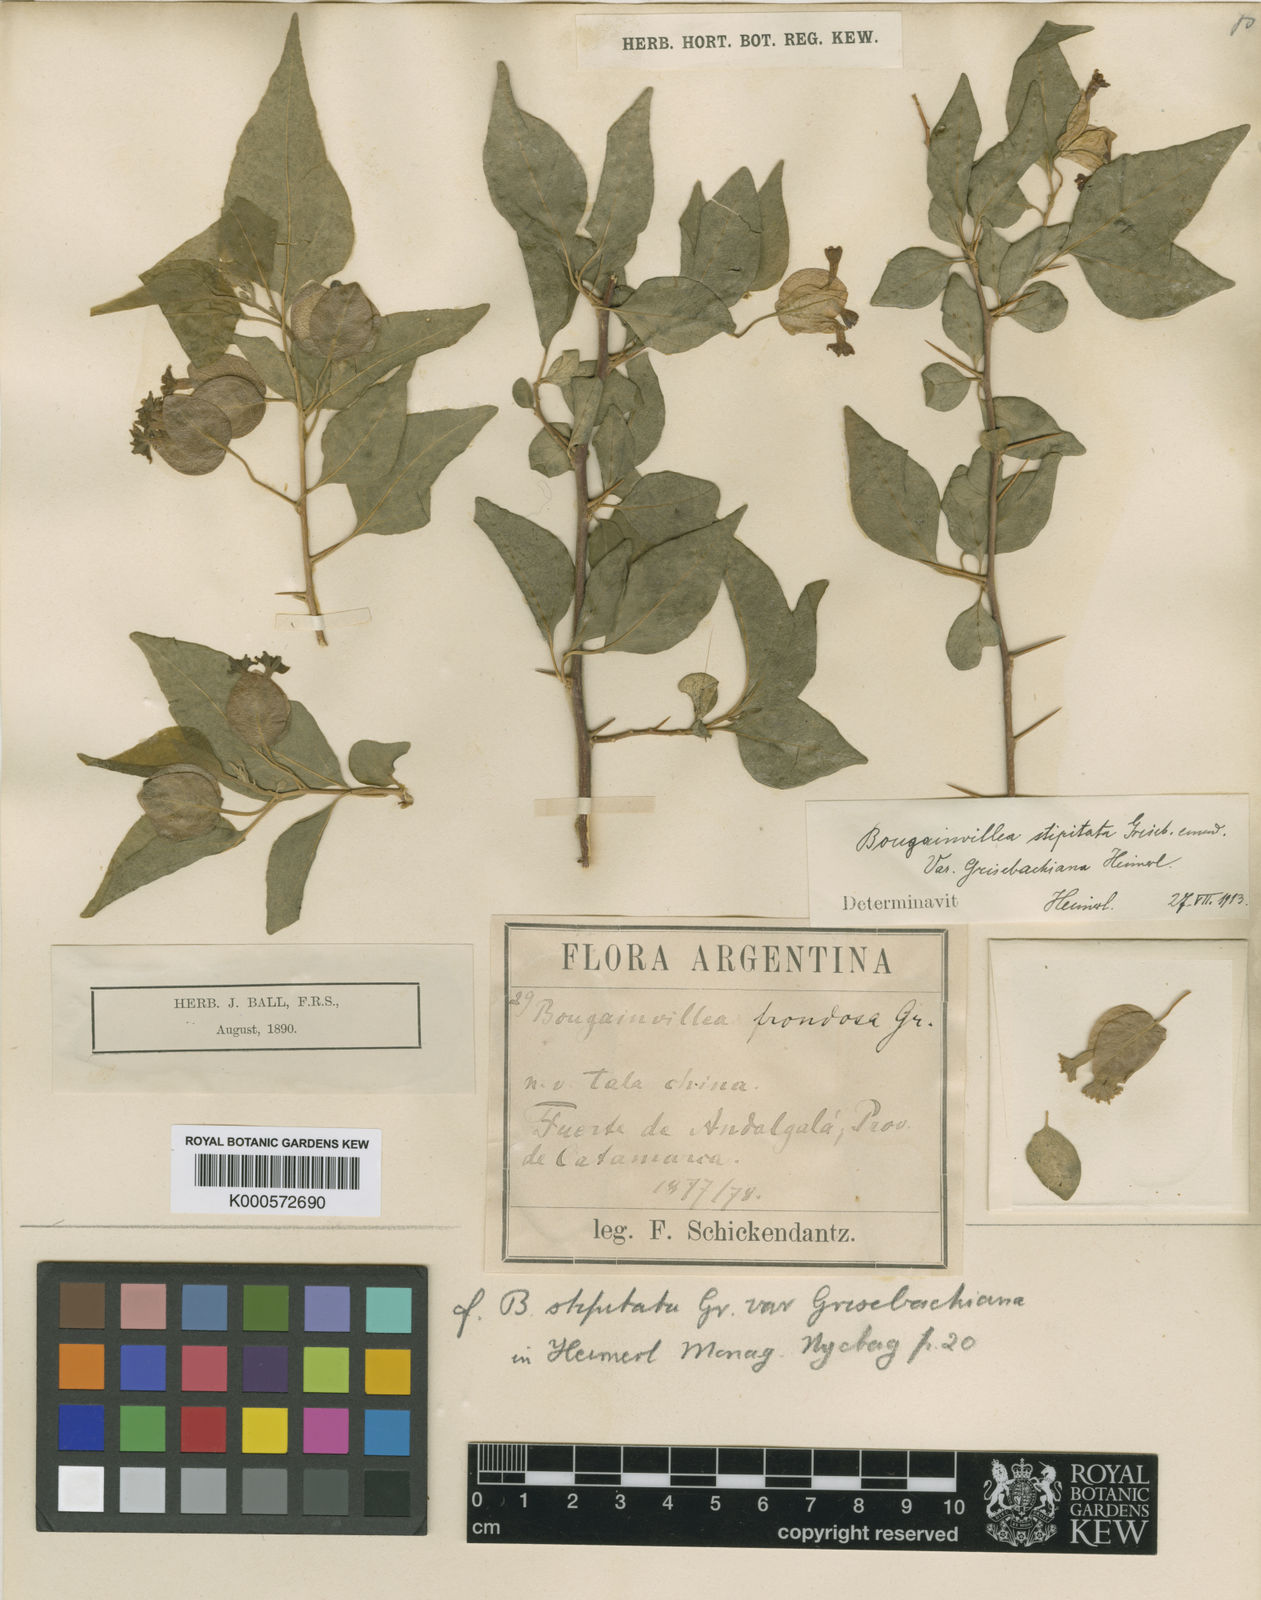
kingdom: Plantae
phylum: Tracheophyta
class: Magnoliopsida
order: Caryophyllales
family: Nyctaginaceae
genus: Bougainvillea
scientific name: Bougainvillea stipitata
